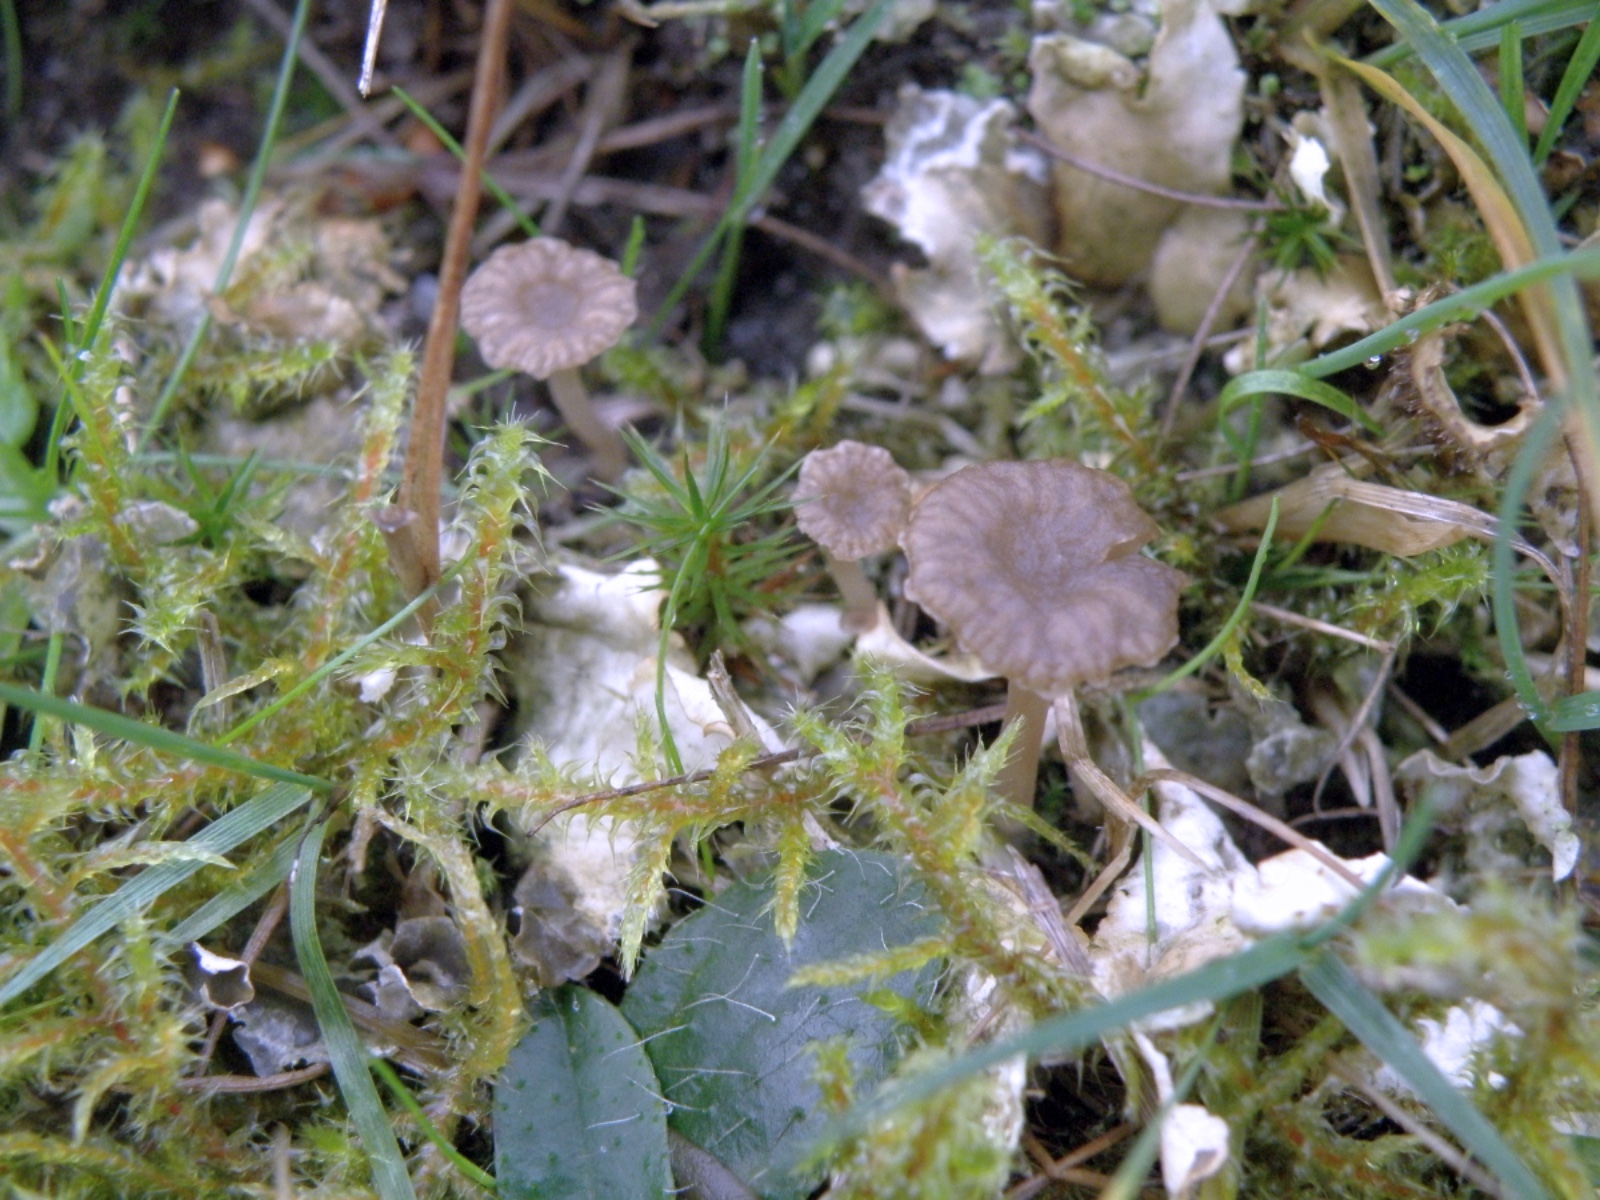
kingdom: Fungi
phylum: Basidiomycota
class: Agaricomycetes
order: Agaricales
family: Hygrophoraceae
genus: Arrhenia
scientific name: Arrhenia peltigerina
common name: skjoldlav-fontænehat
